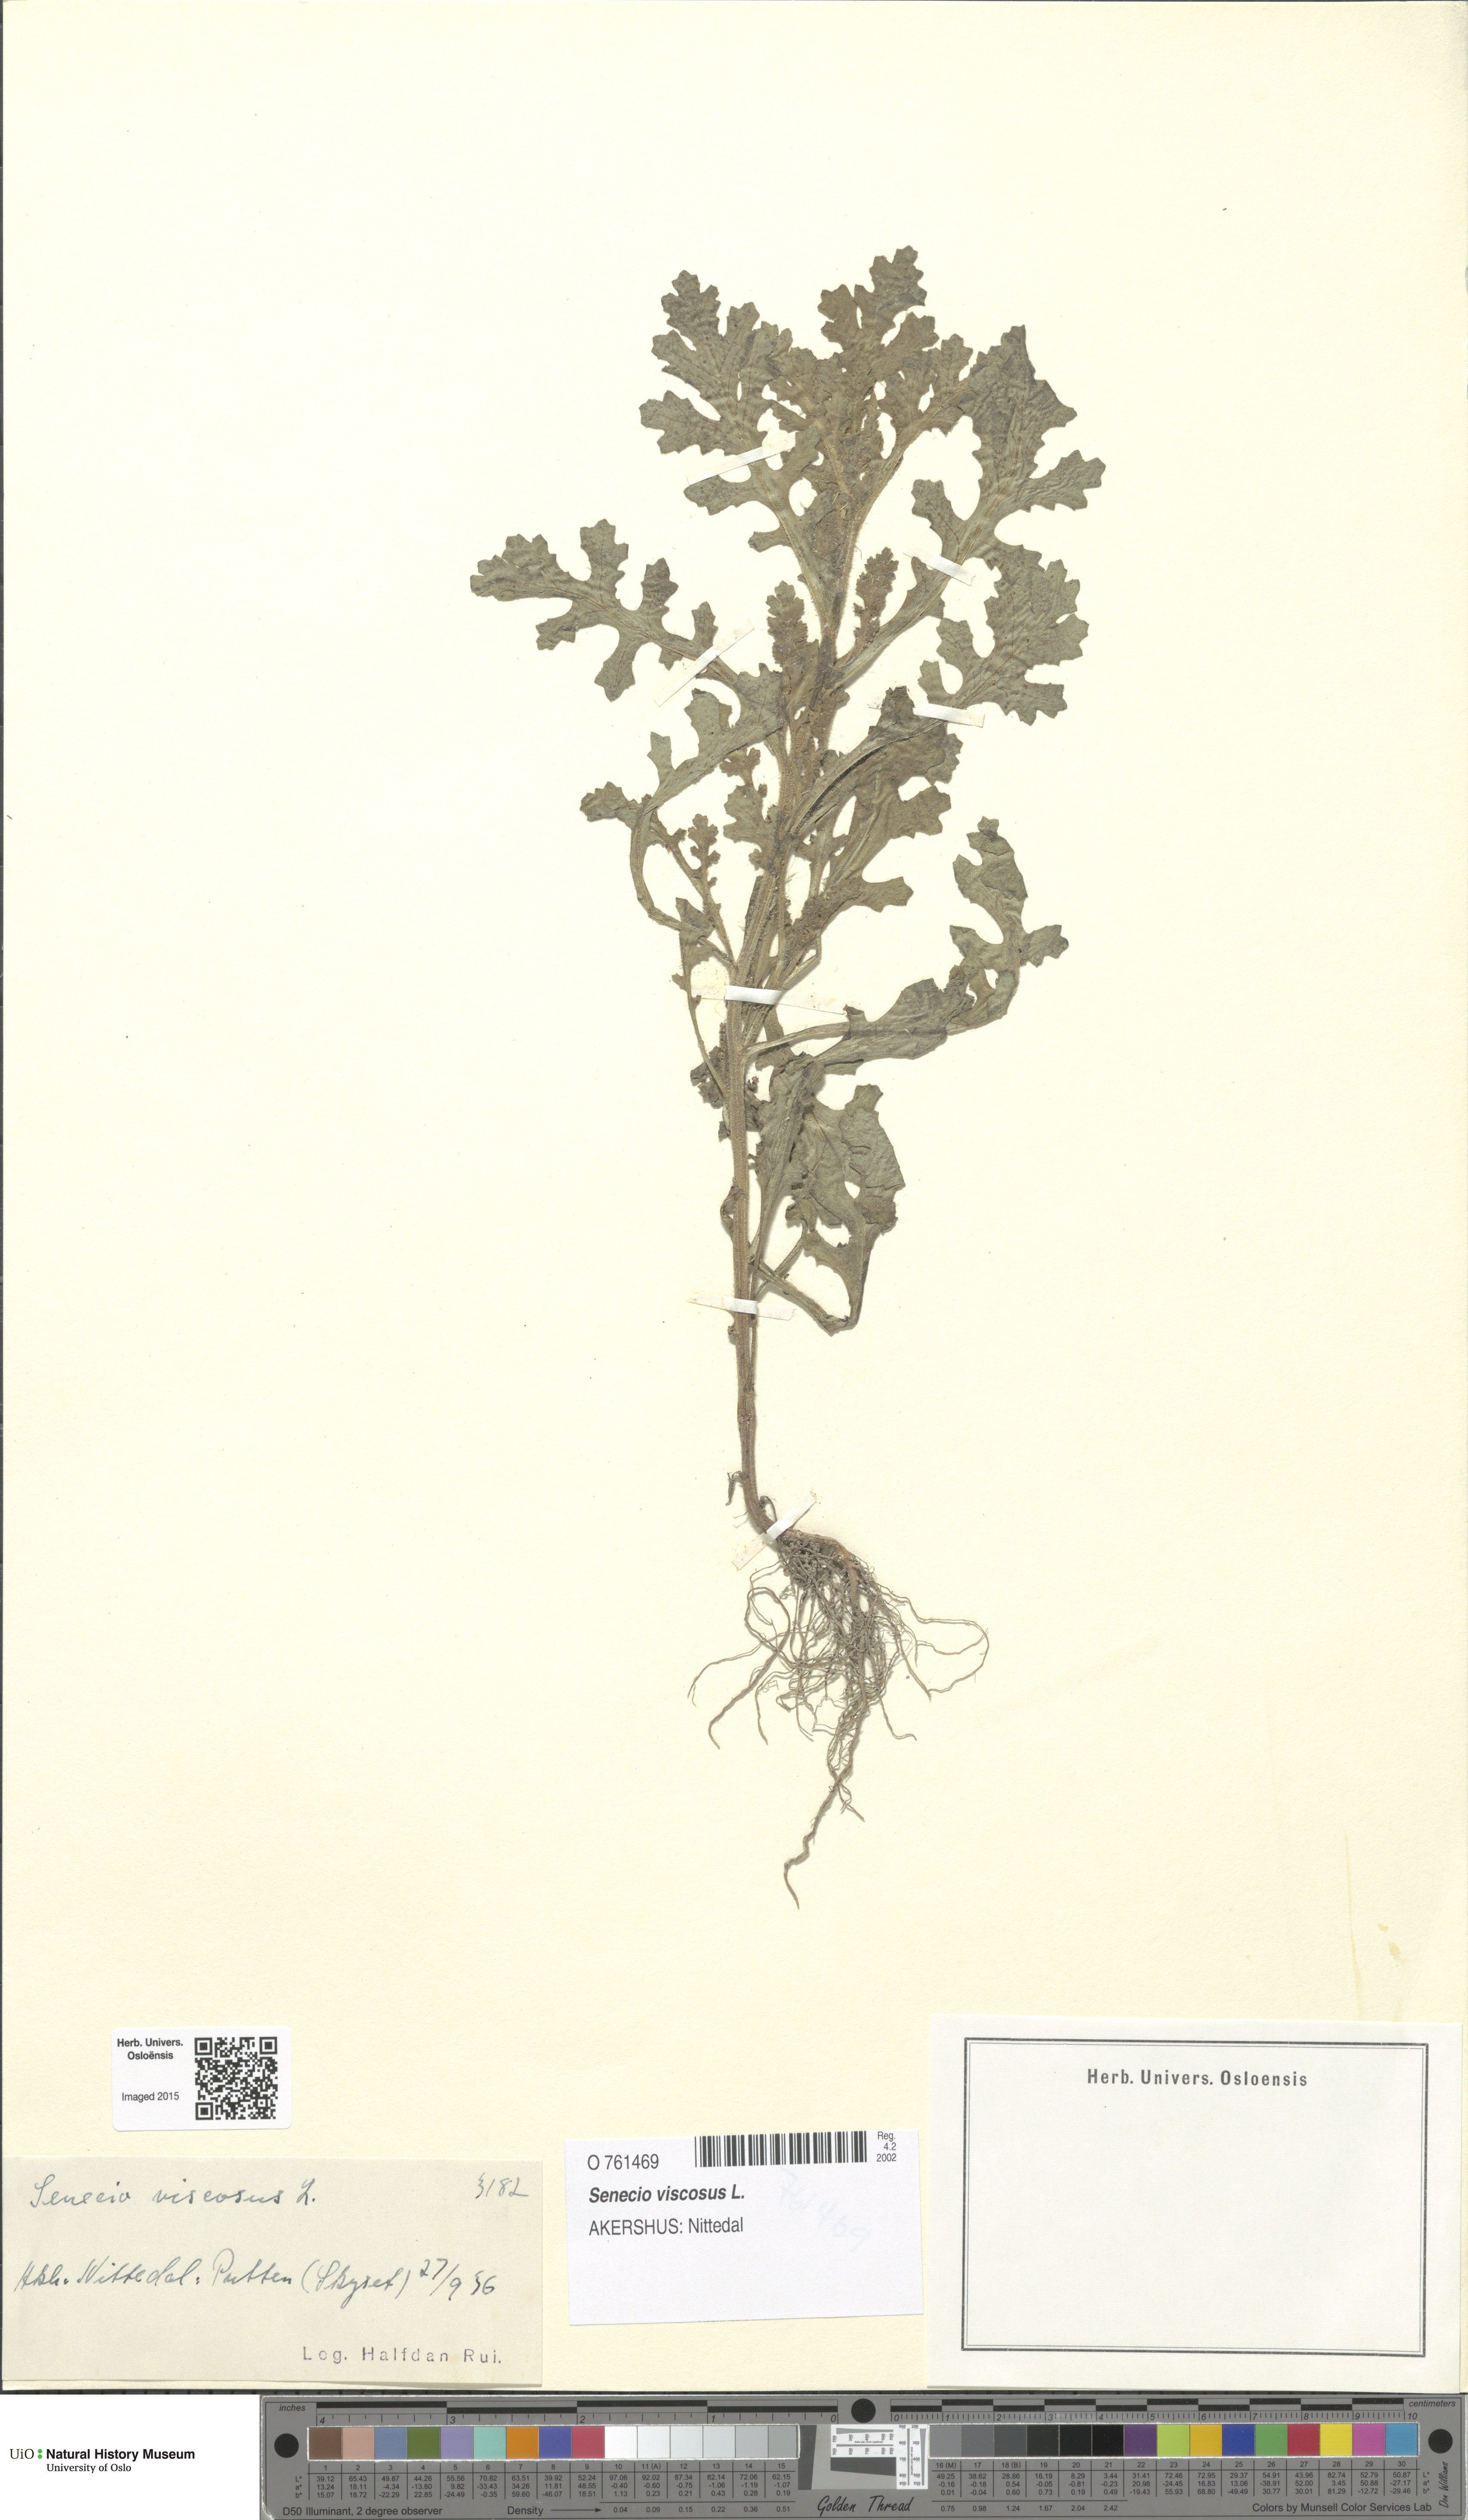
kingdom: Plantae
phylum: Tracheophyta
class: Magnoliopsida
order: Asterales
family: Asteraceae
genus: Senecio
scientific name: Senecio viscosus
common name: Sticky groundsel
